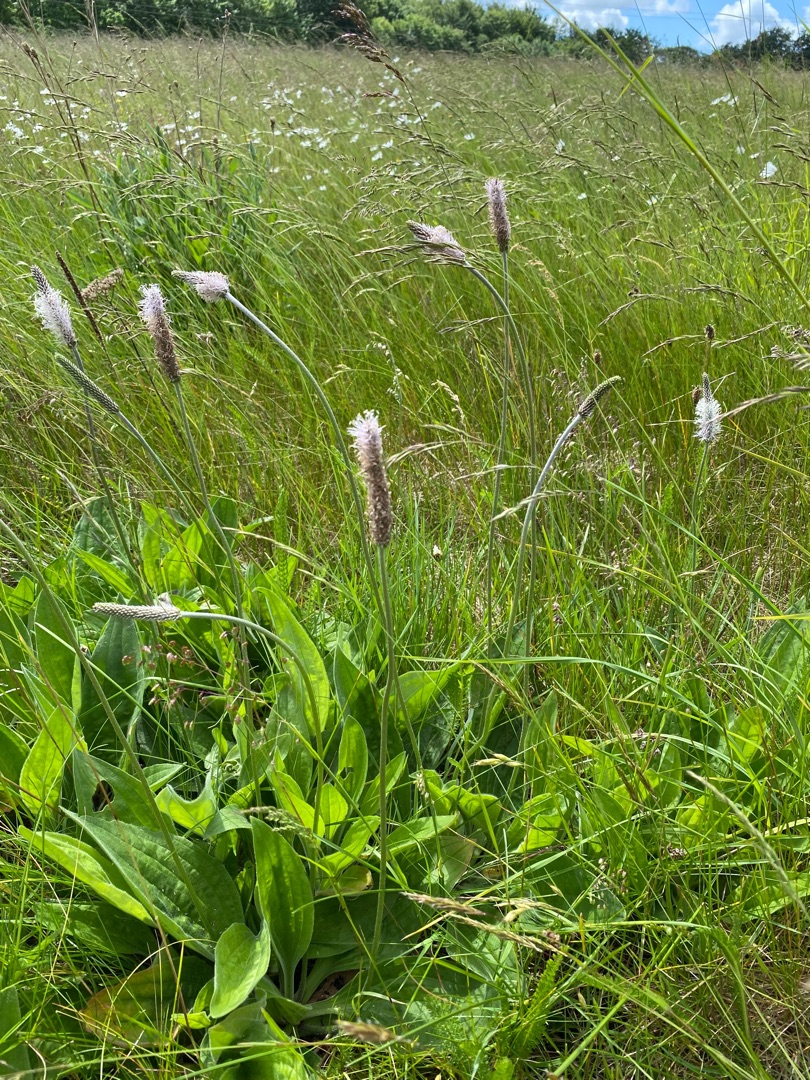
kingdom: Plantae
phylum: Tracheophyta
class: Magnoliopsida
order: Lamiales
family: Plantaginaceae
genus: Plantago
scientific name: Plantago media
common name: Dunet vejbred
